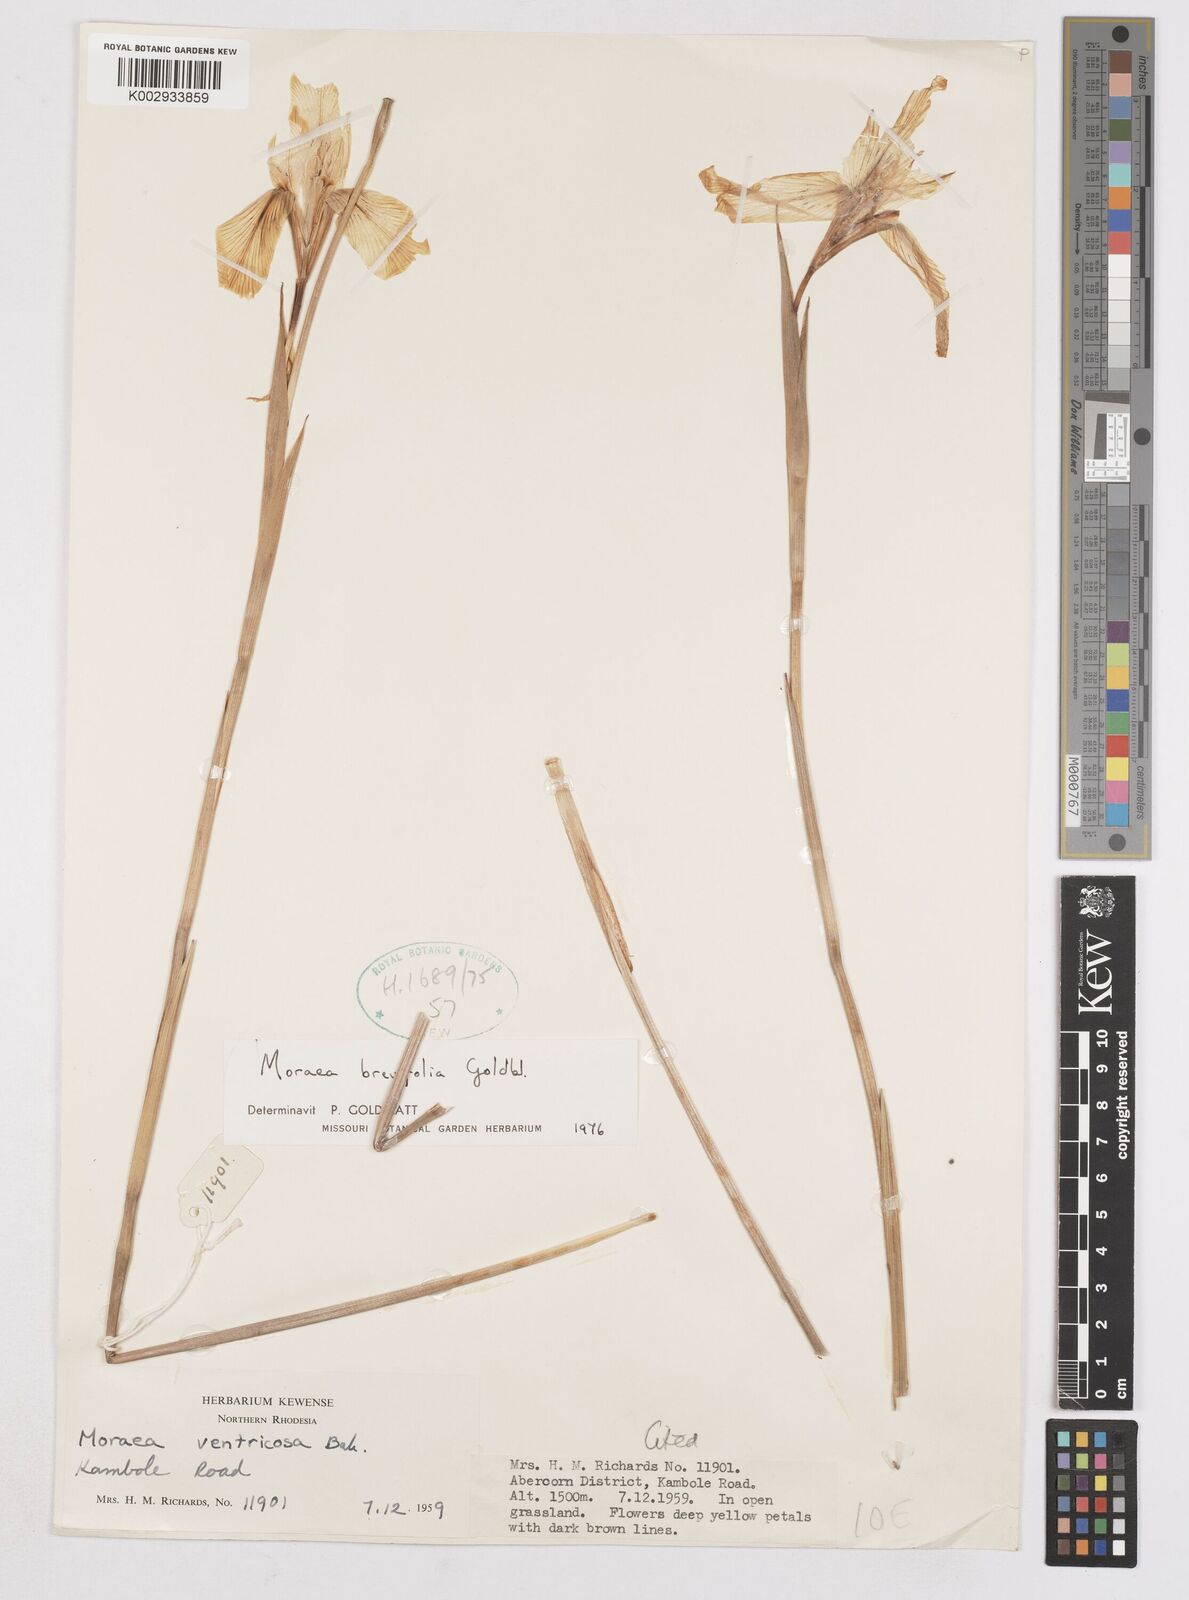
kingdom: Plantae
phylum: Tracheophyta
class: Liliopsida
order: Asparagales
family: Iridaceae
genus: Moraea
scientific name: Moraea brevifolia
